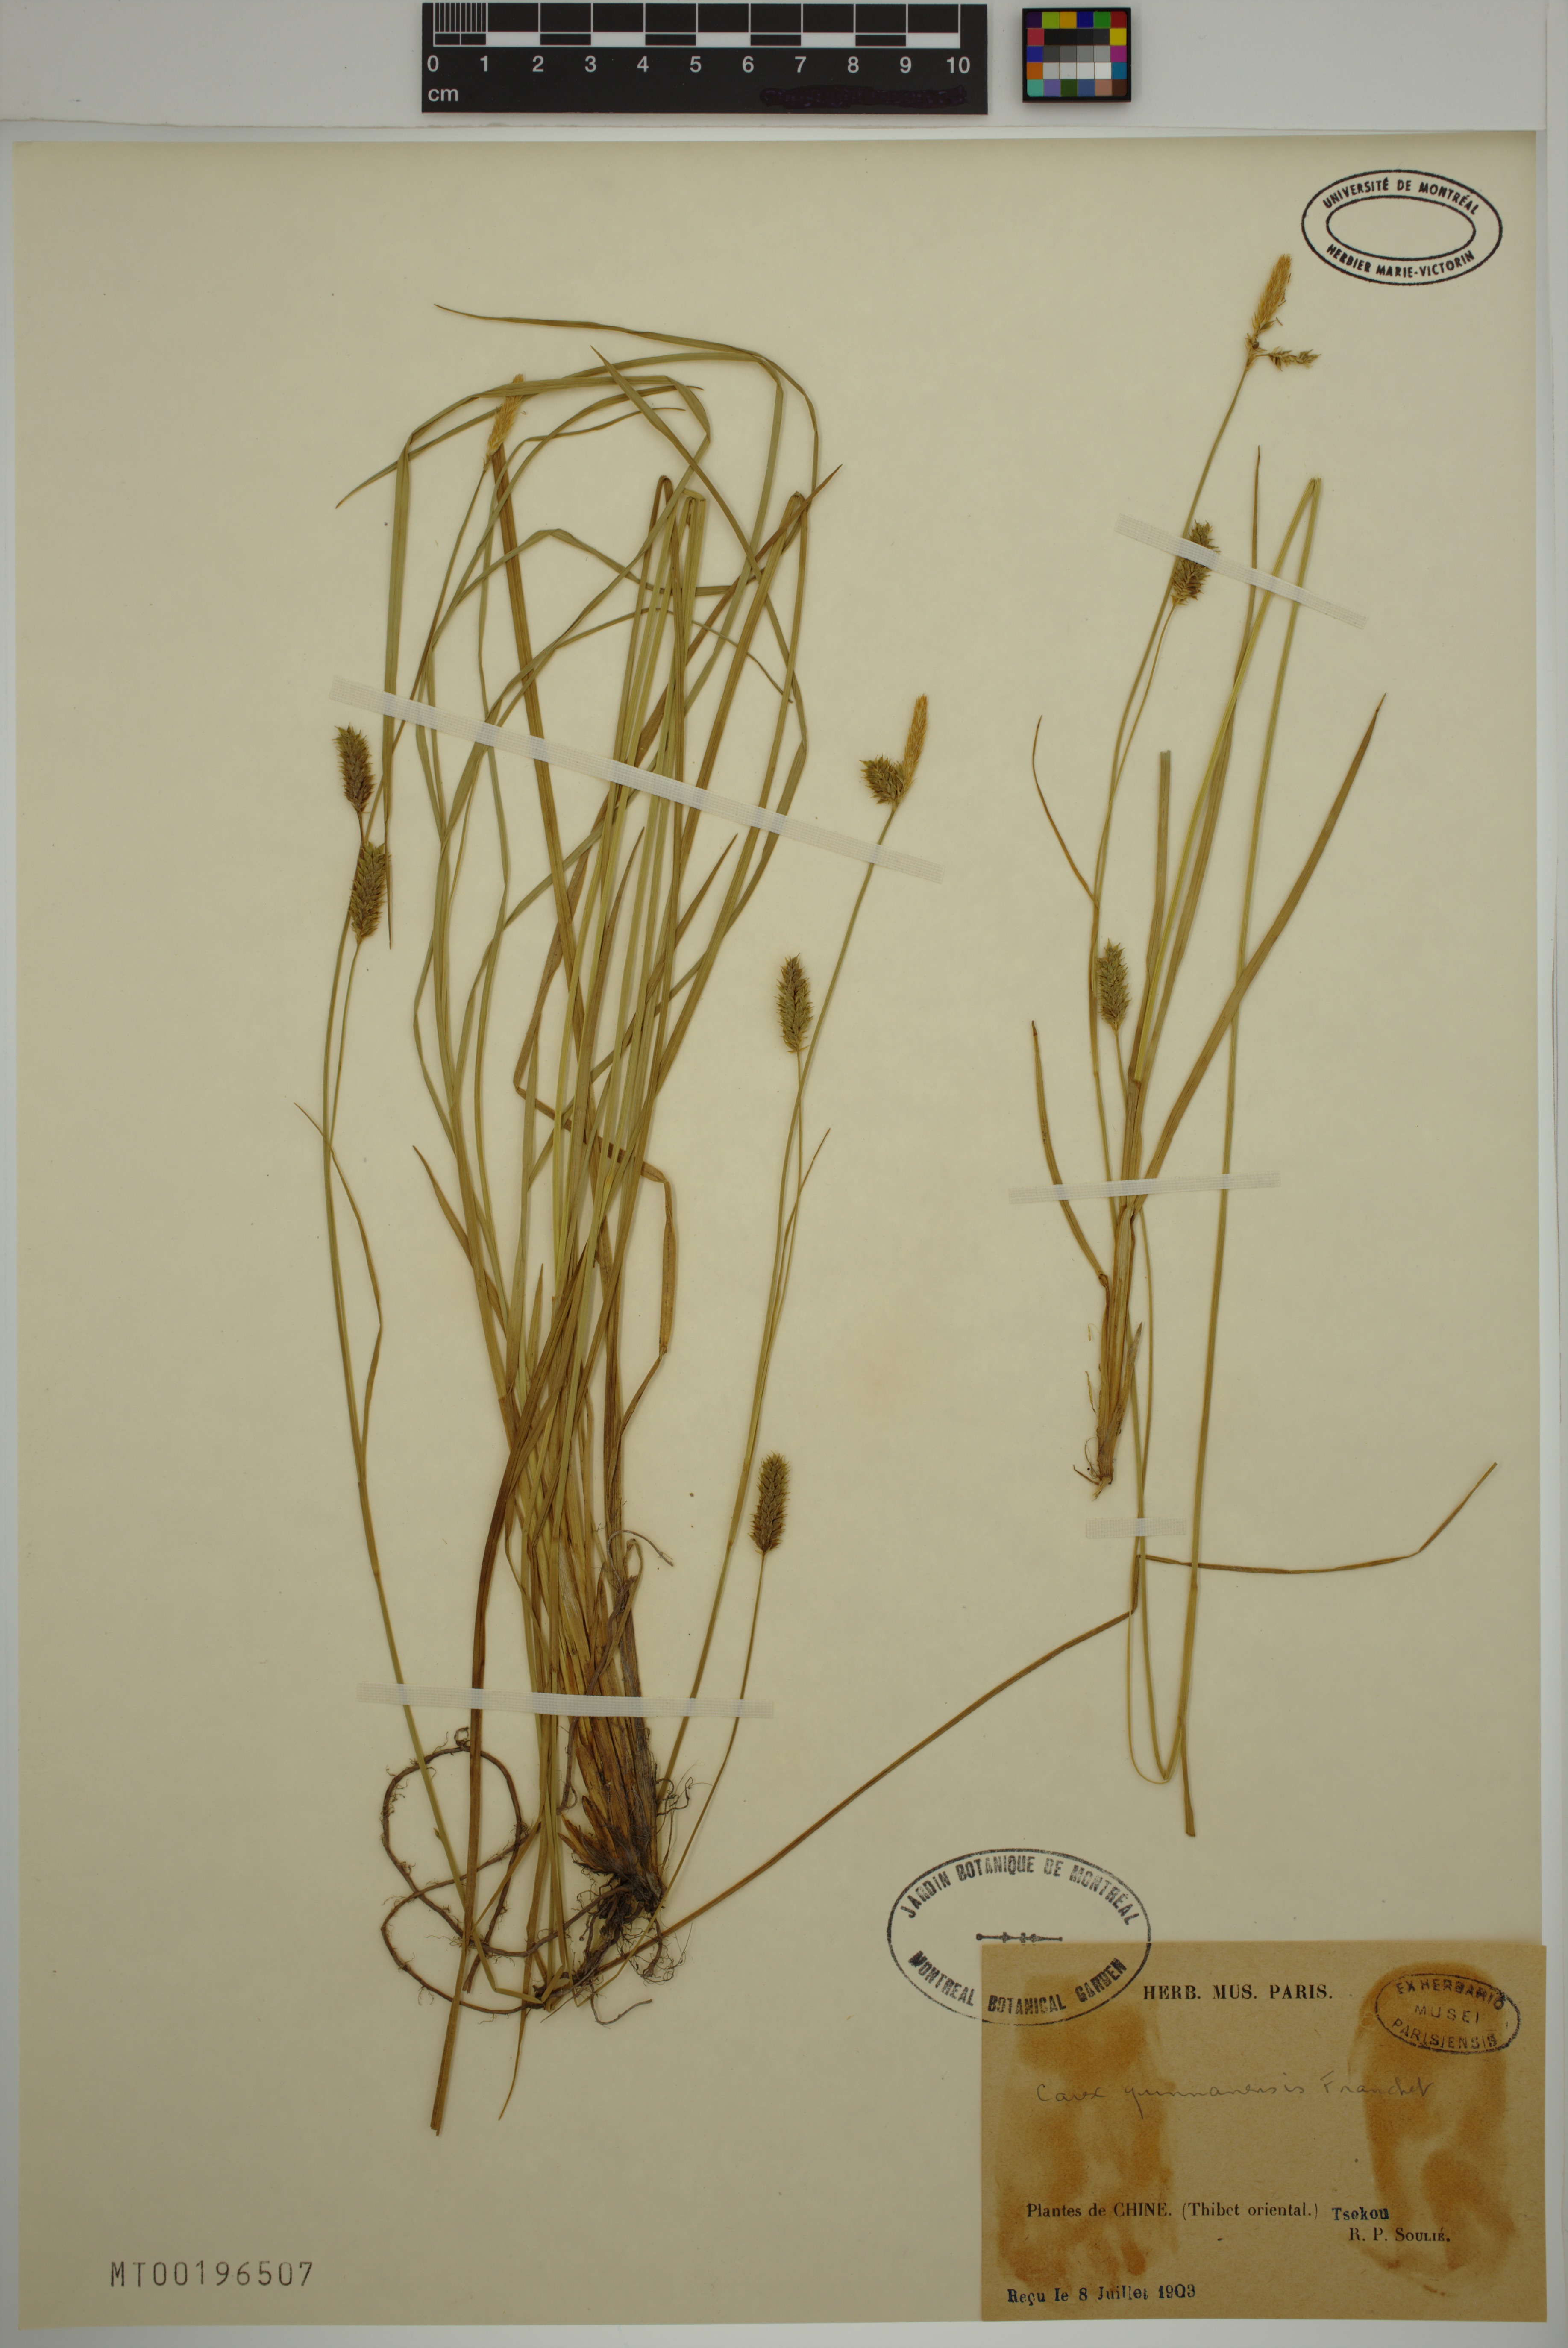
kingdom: Plantae
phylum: Tracheophyta
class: Liliopsida
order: Poales
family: Cyperaceae
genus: Carex
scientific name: Carex yunnanensis
